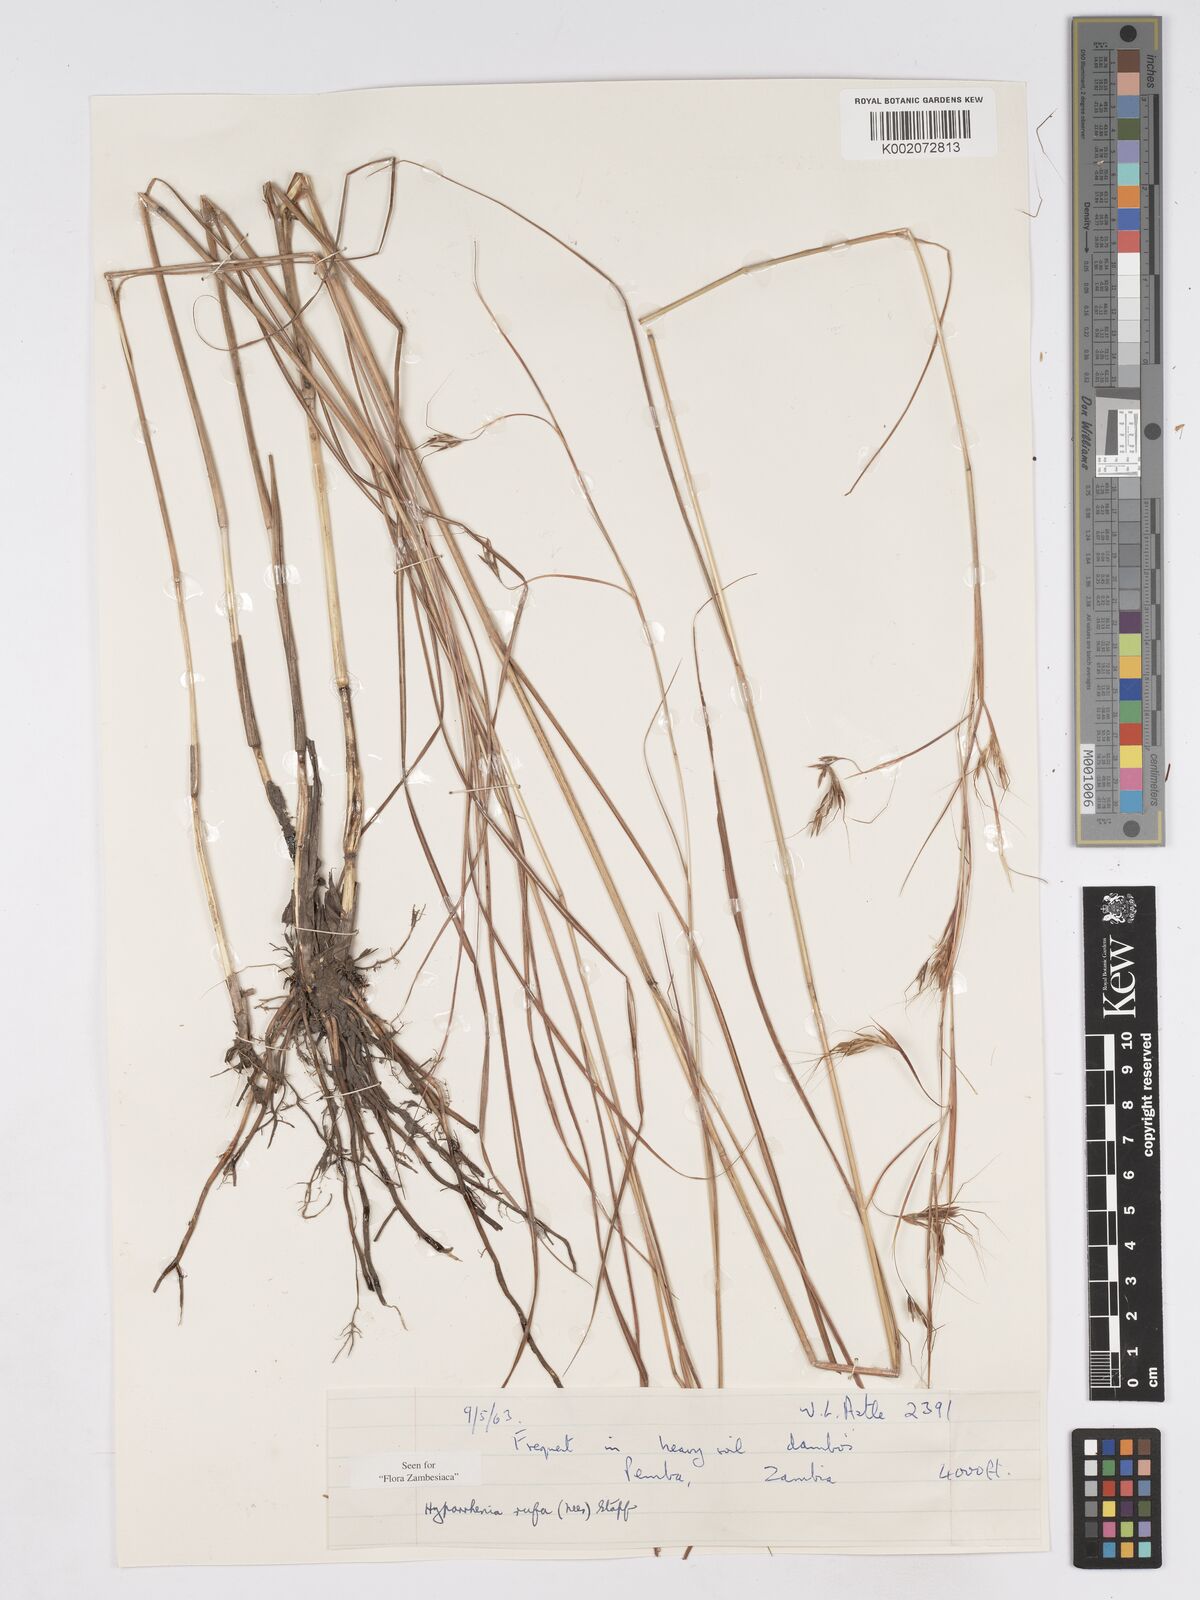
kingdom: Plantae
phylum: Tracheophyta
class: Liliopsida
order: Poales
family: Poaceae
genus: Hyparrhenia
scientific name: Hyparrhenia rufa
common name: Jaraguagrass
